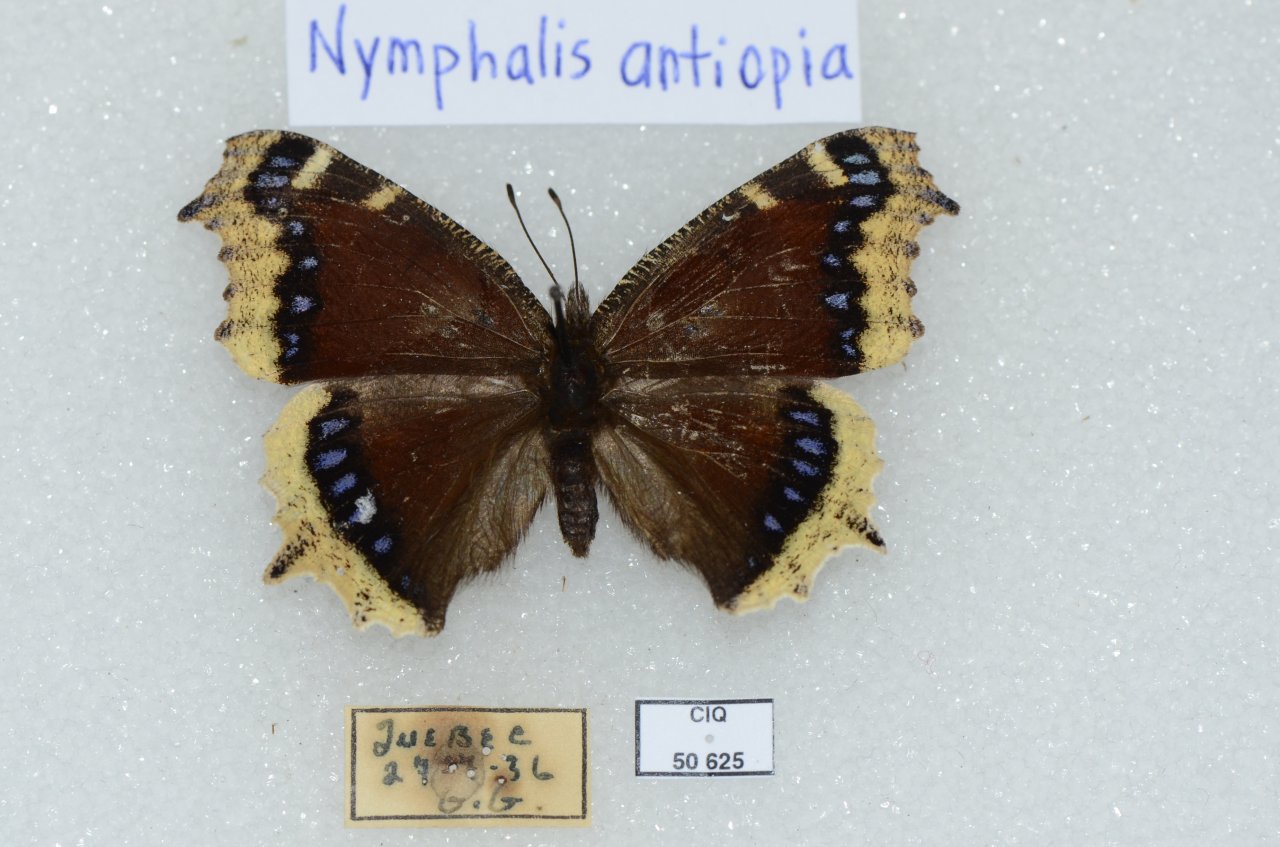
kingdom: Animalia
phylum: Arthropoda
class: Insecta
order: Lepidoptera
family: Nymphalidae
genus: Nymphalis
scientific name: Nymphalis antiopa
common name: Mourning Cloak
